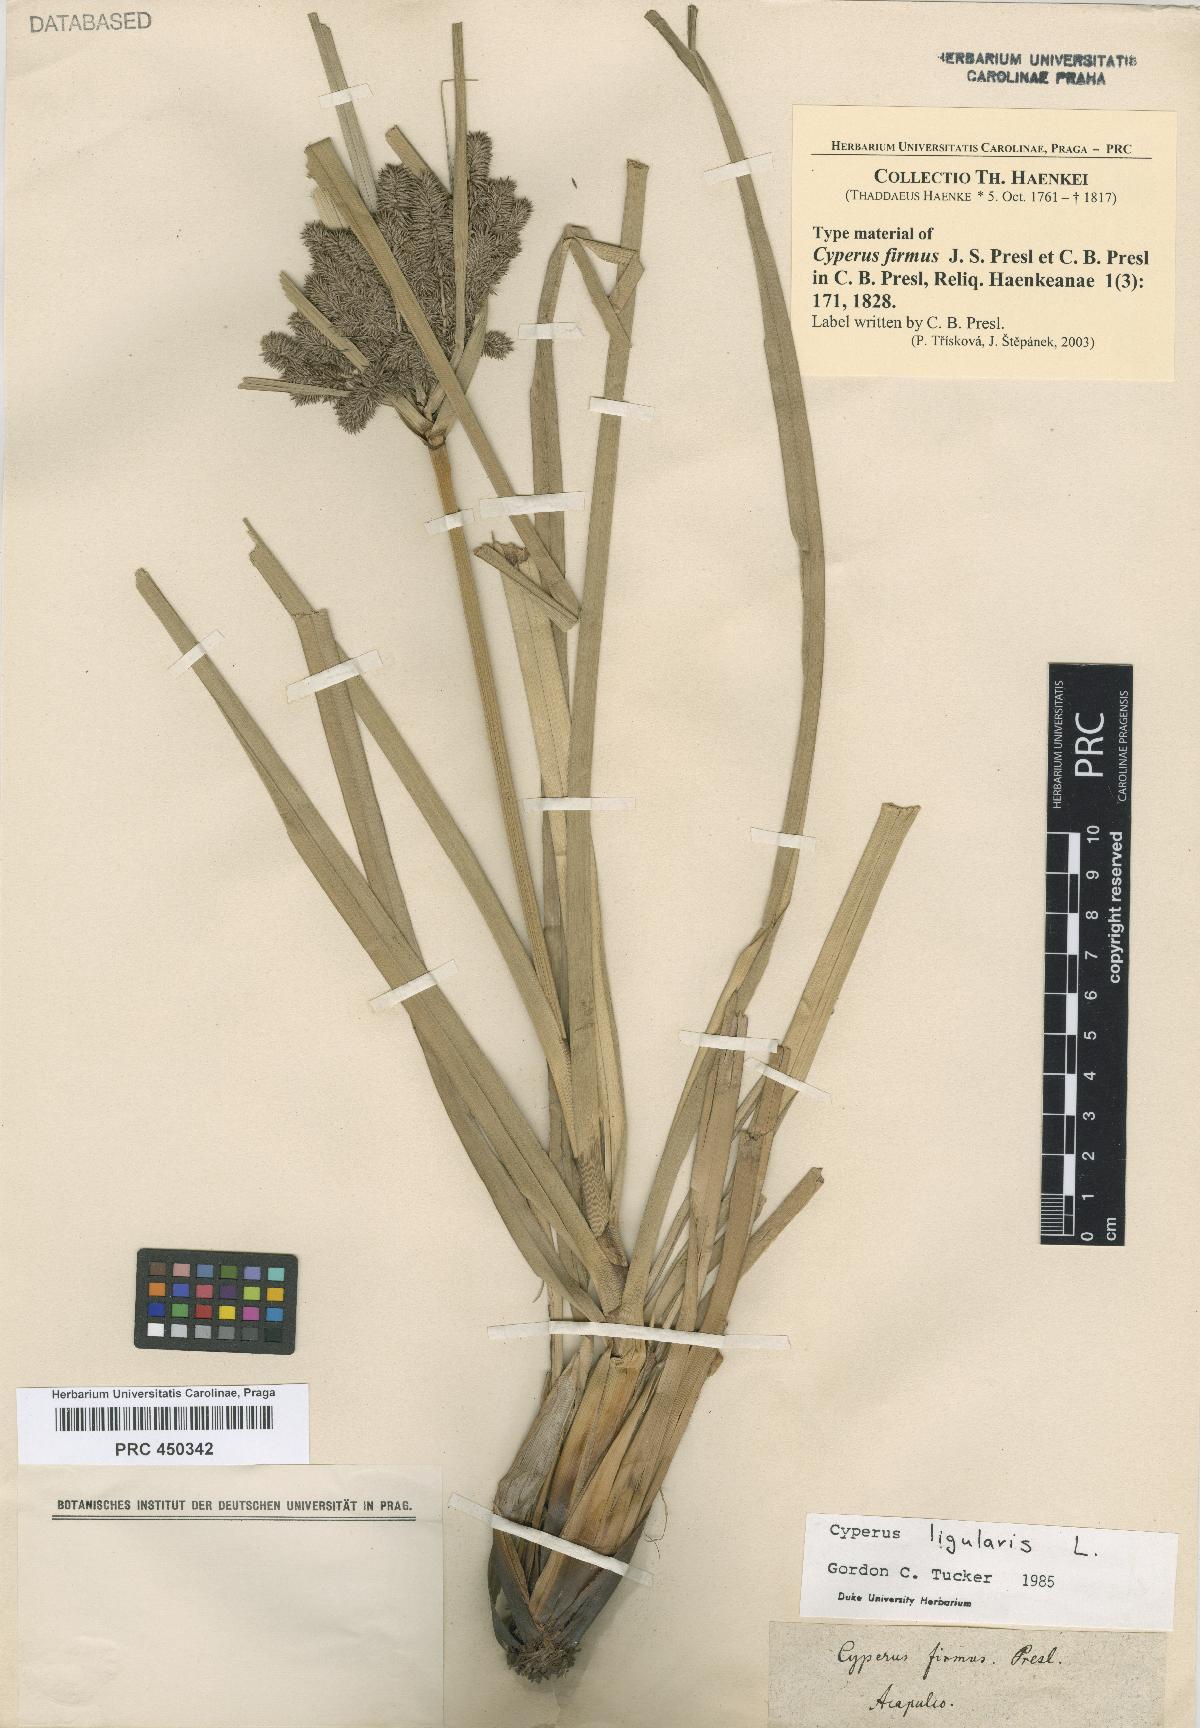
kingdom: Plantae
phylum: Tracheophyta
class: Liliopsida
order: Poales
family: Cyperaceae
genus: Cyperus
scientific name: Cyperus ligularis
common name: Swamp flat sedge
